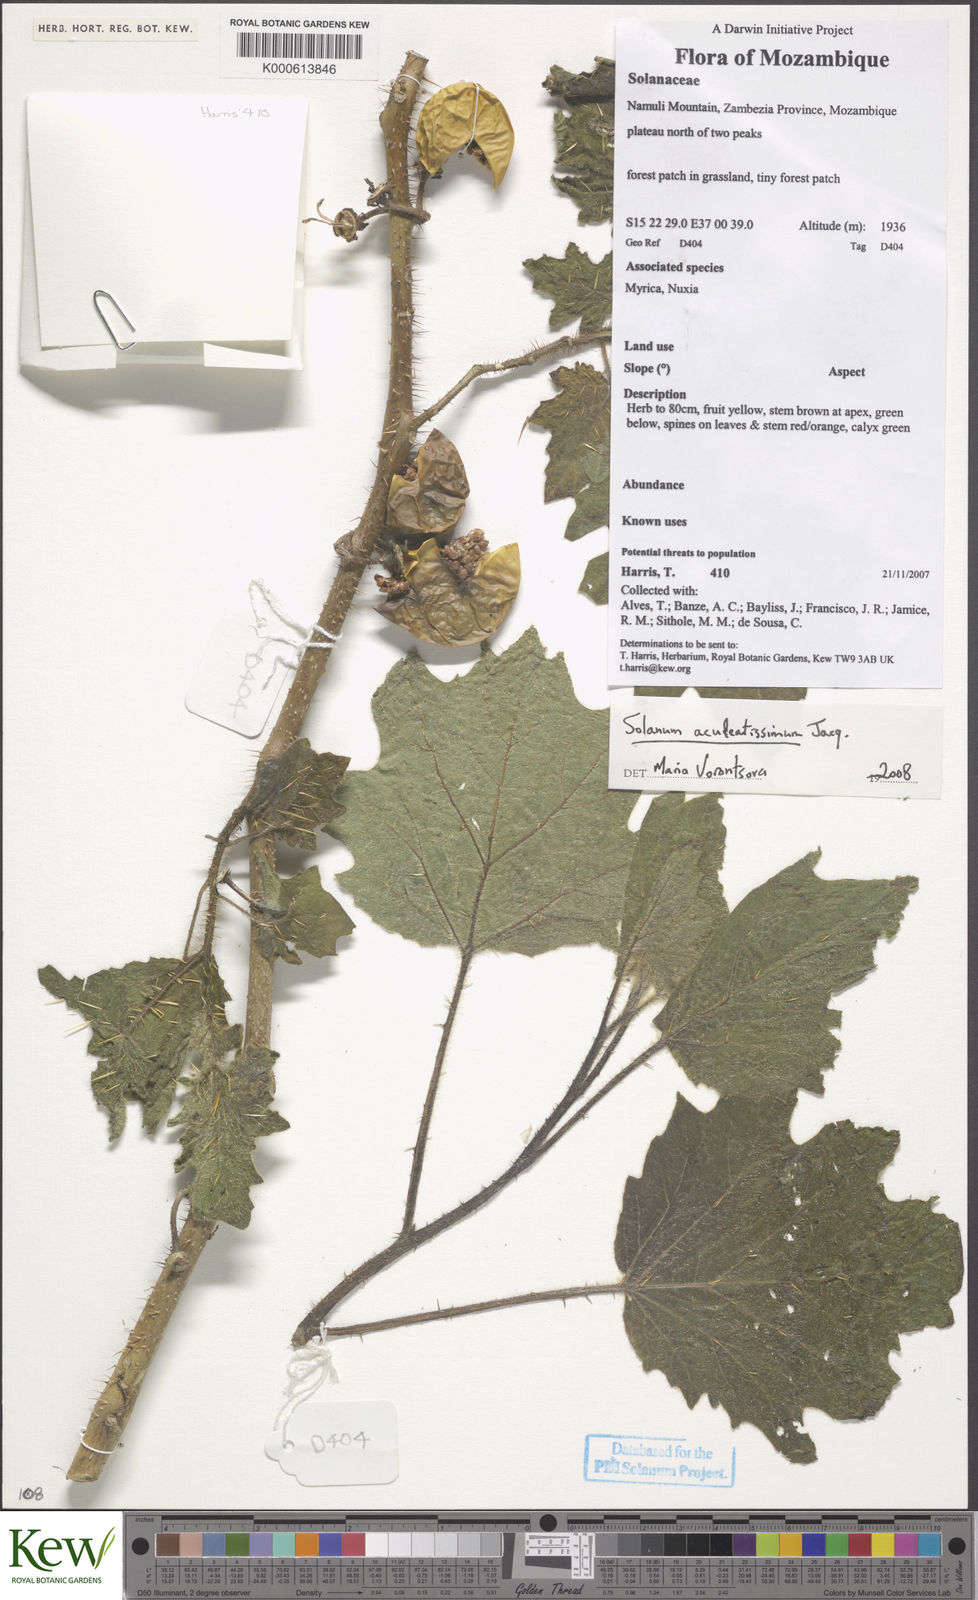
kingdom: Plantae
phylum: Tracheophyta
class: Magnoliopsida
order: Solanales
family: Solanaceae
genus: Solanum
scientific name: Solanum aculeatissimum
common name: Dutch eggplant
